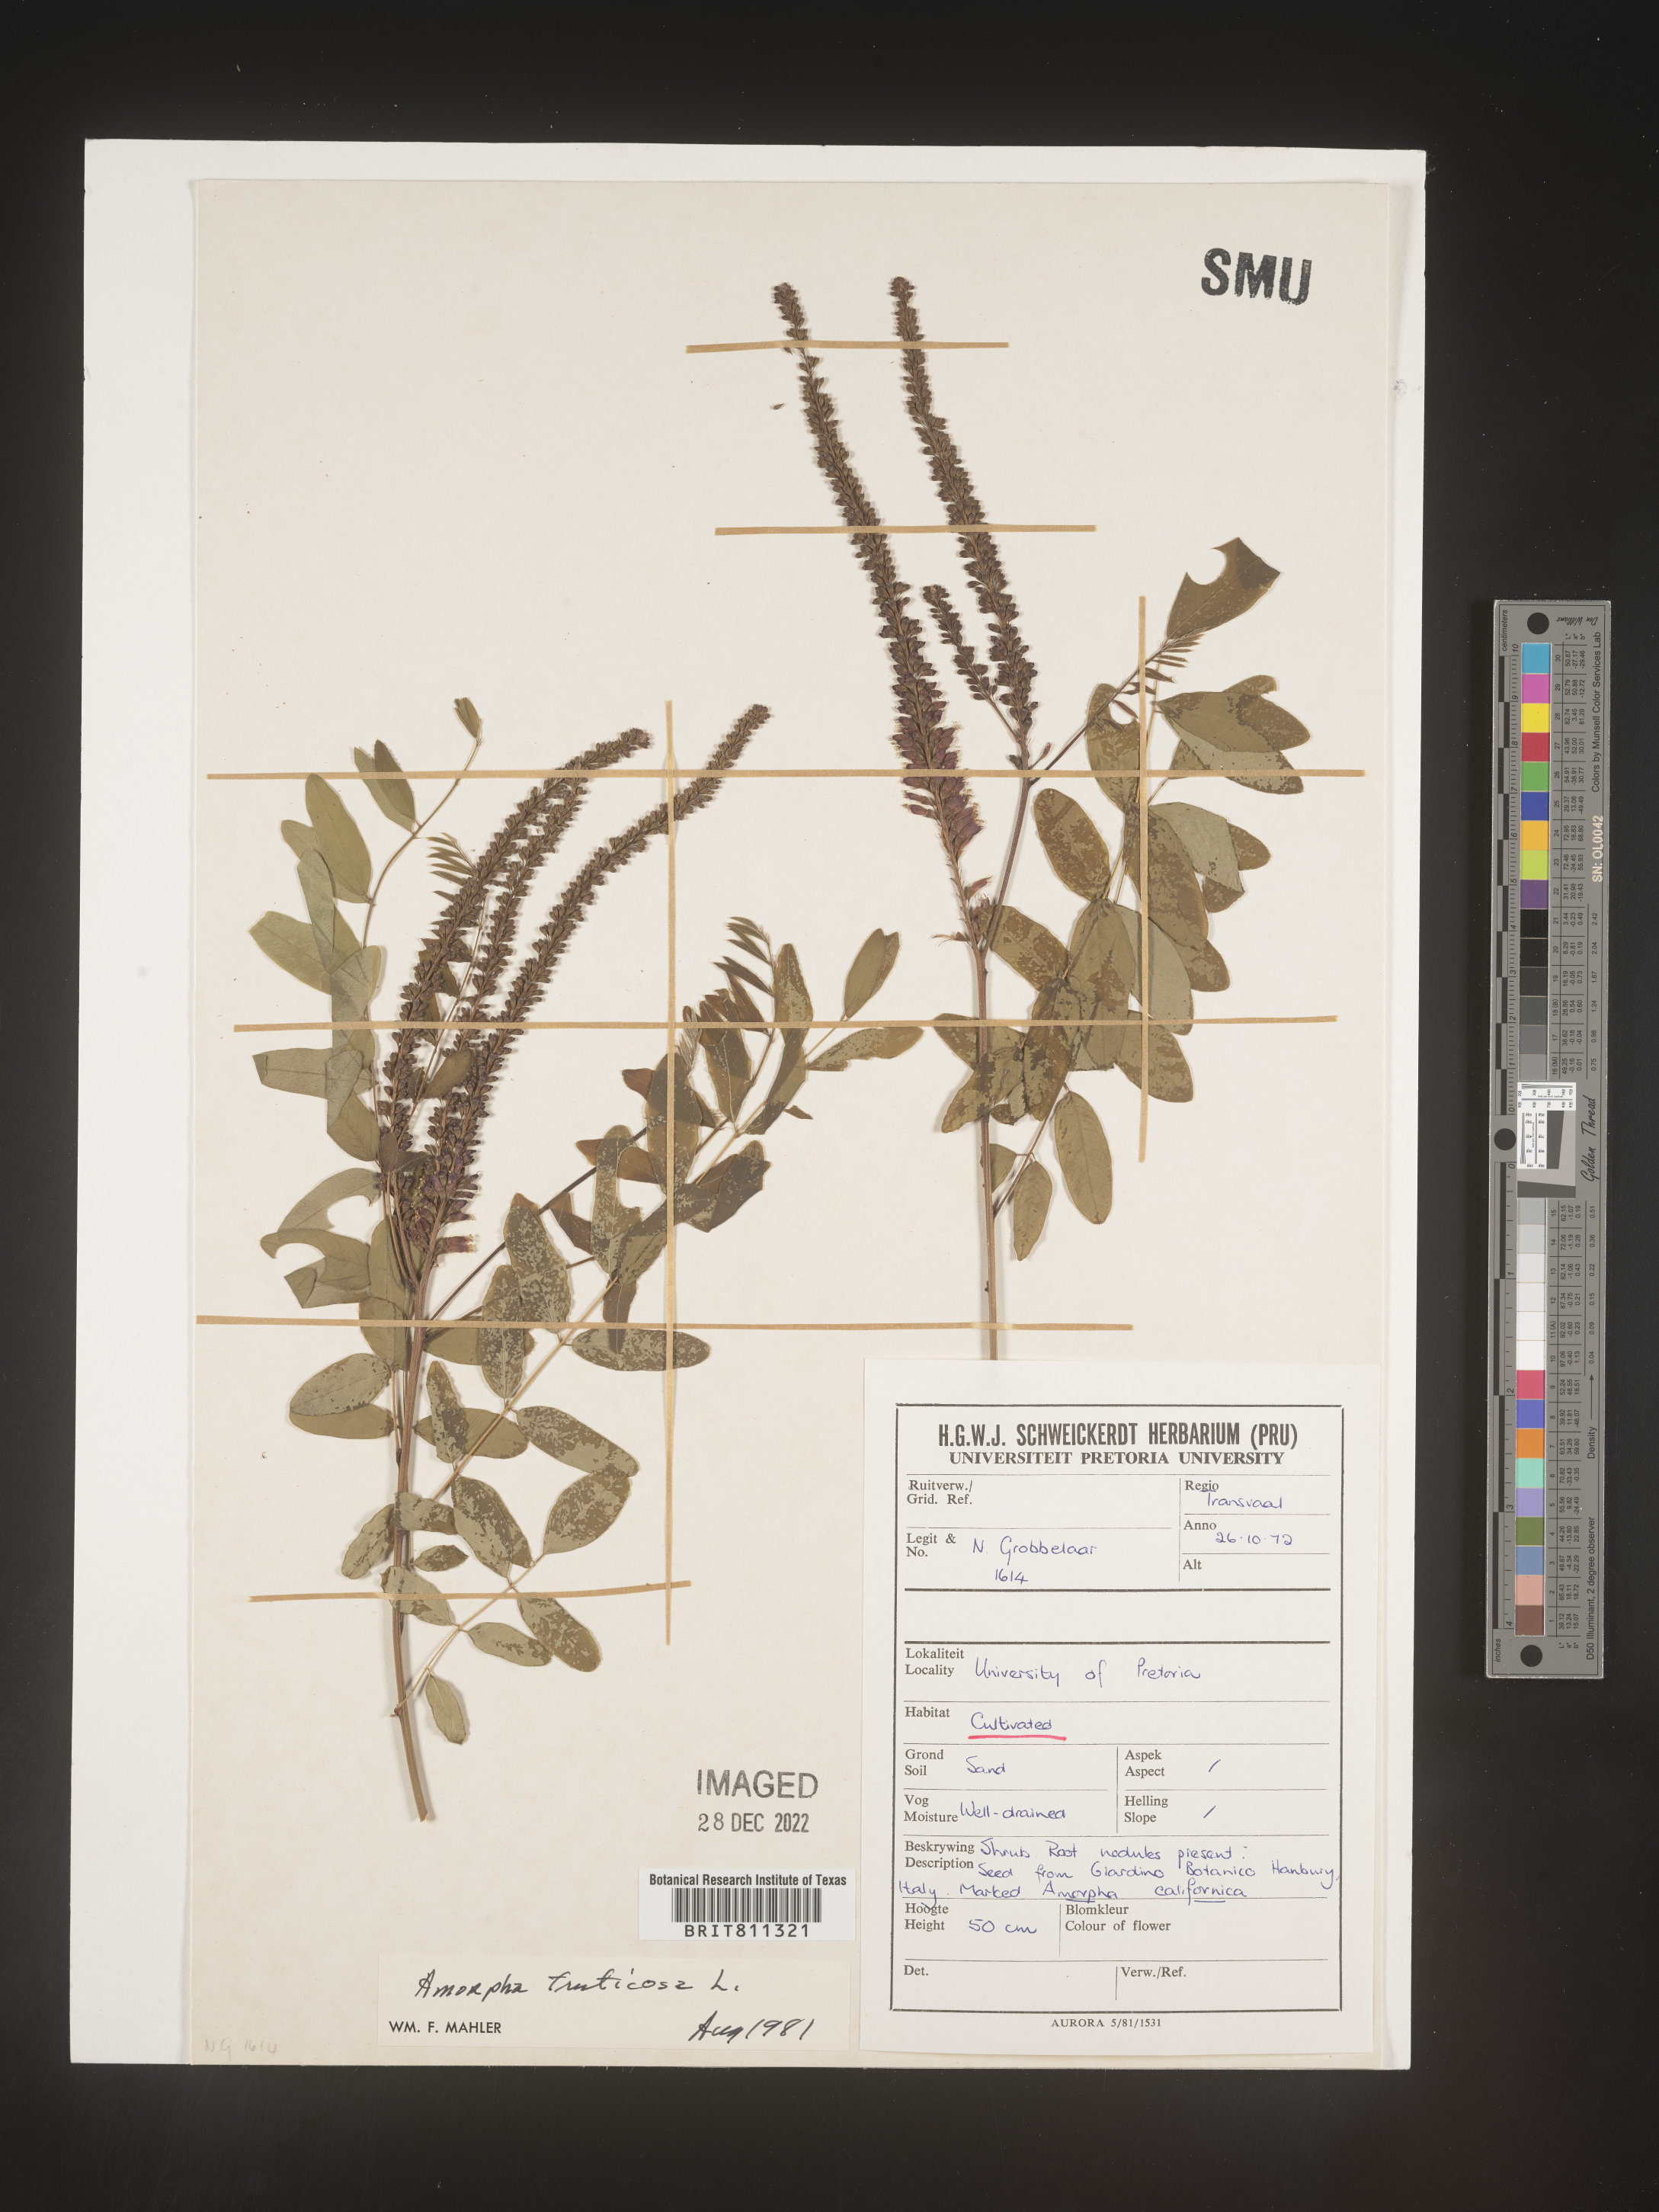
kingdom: Plantae
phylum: Tracheophyta
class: Magnoliopsida
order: Fabales
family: Fabaceae
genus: Amorpha
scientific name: Amorpha
